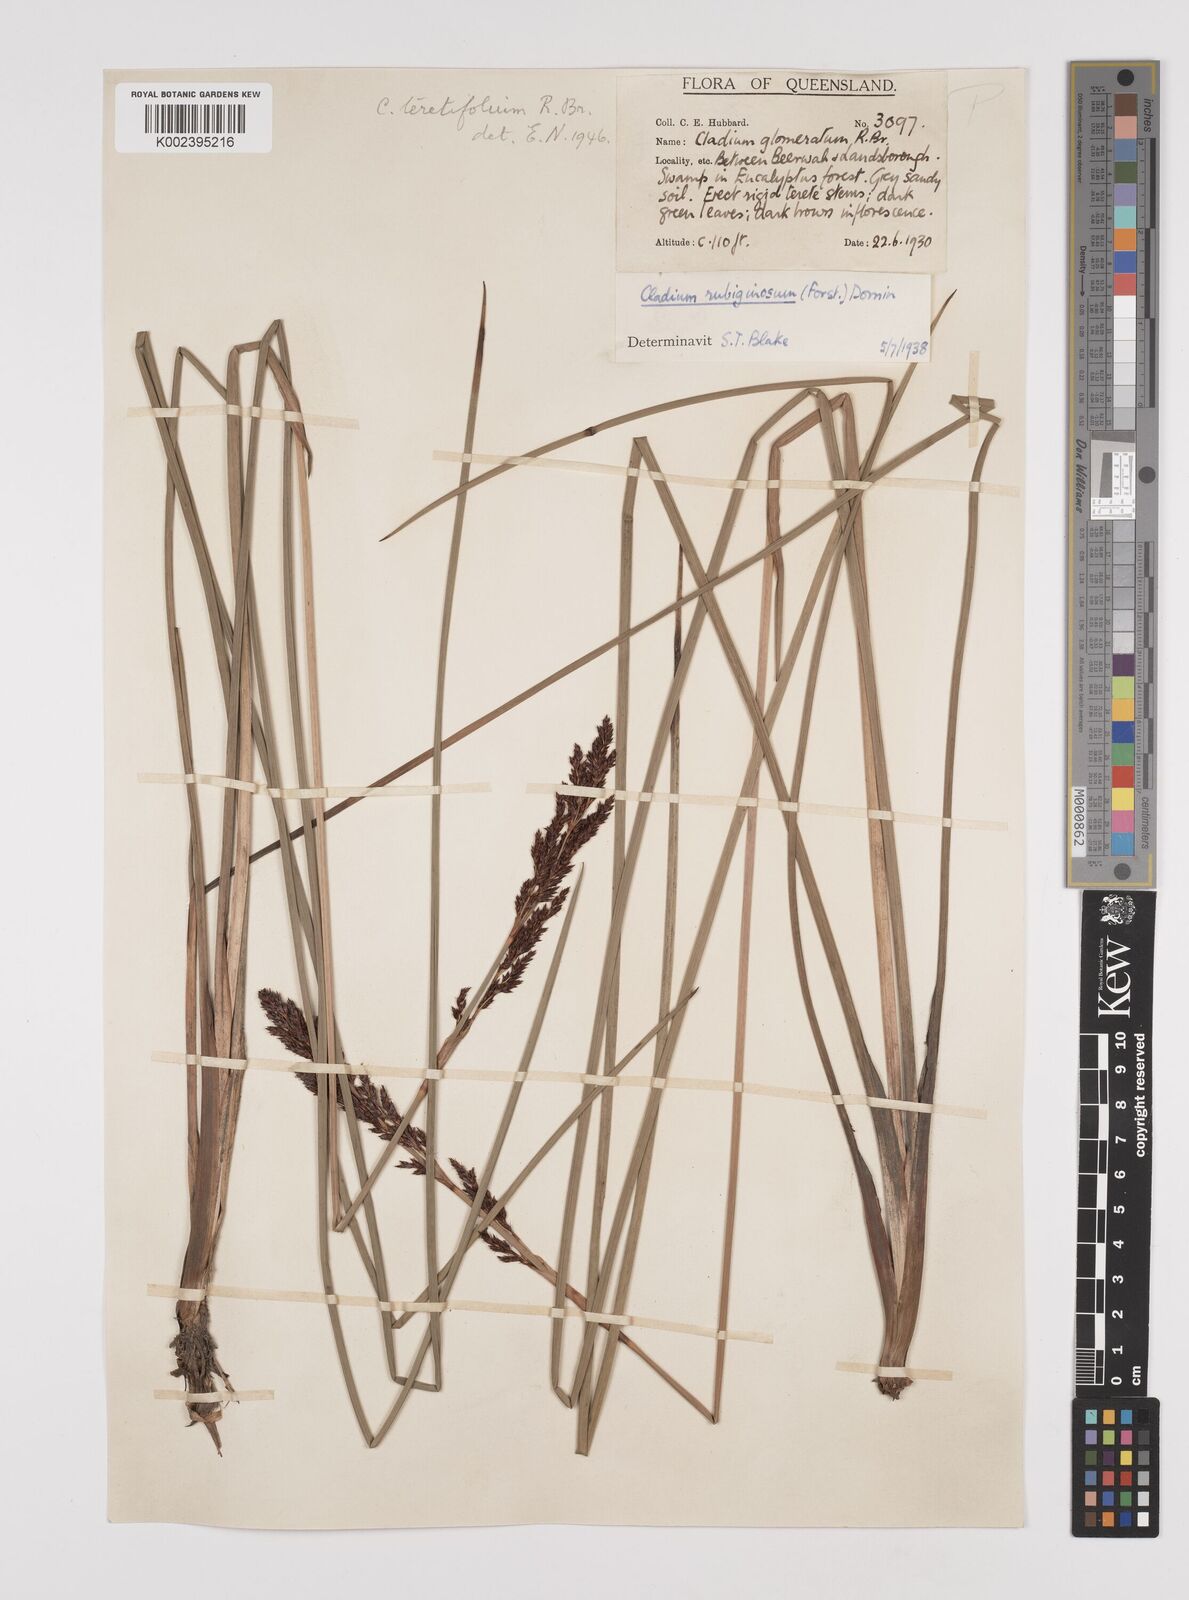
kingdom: Plantae
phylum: Tracheophyta
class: Liliopsida
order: Poales
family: Cyperaceae
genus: Machaerina
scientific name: Machaerina teretifolia
